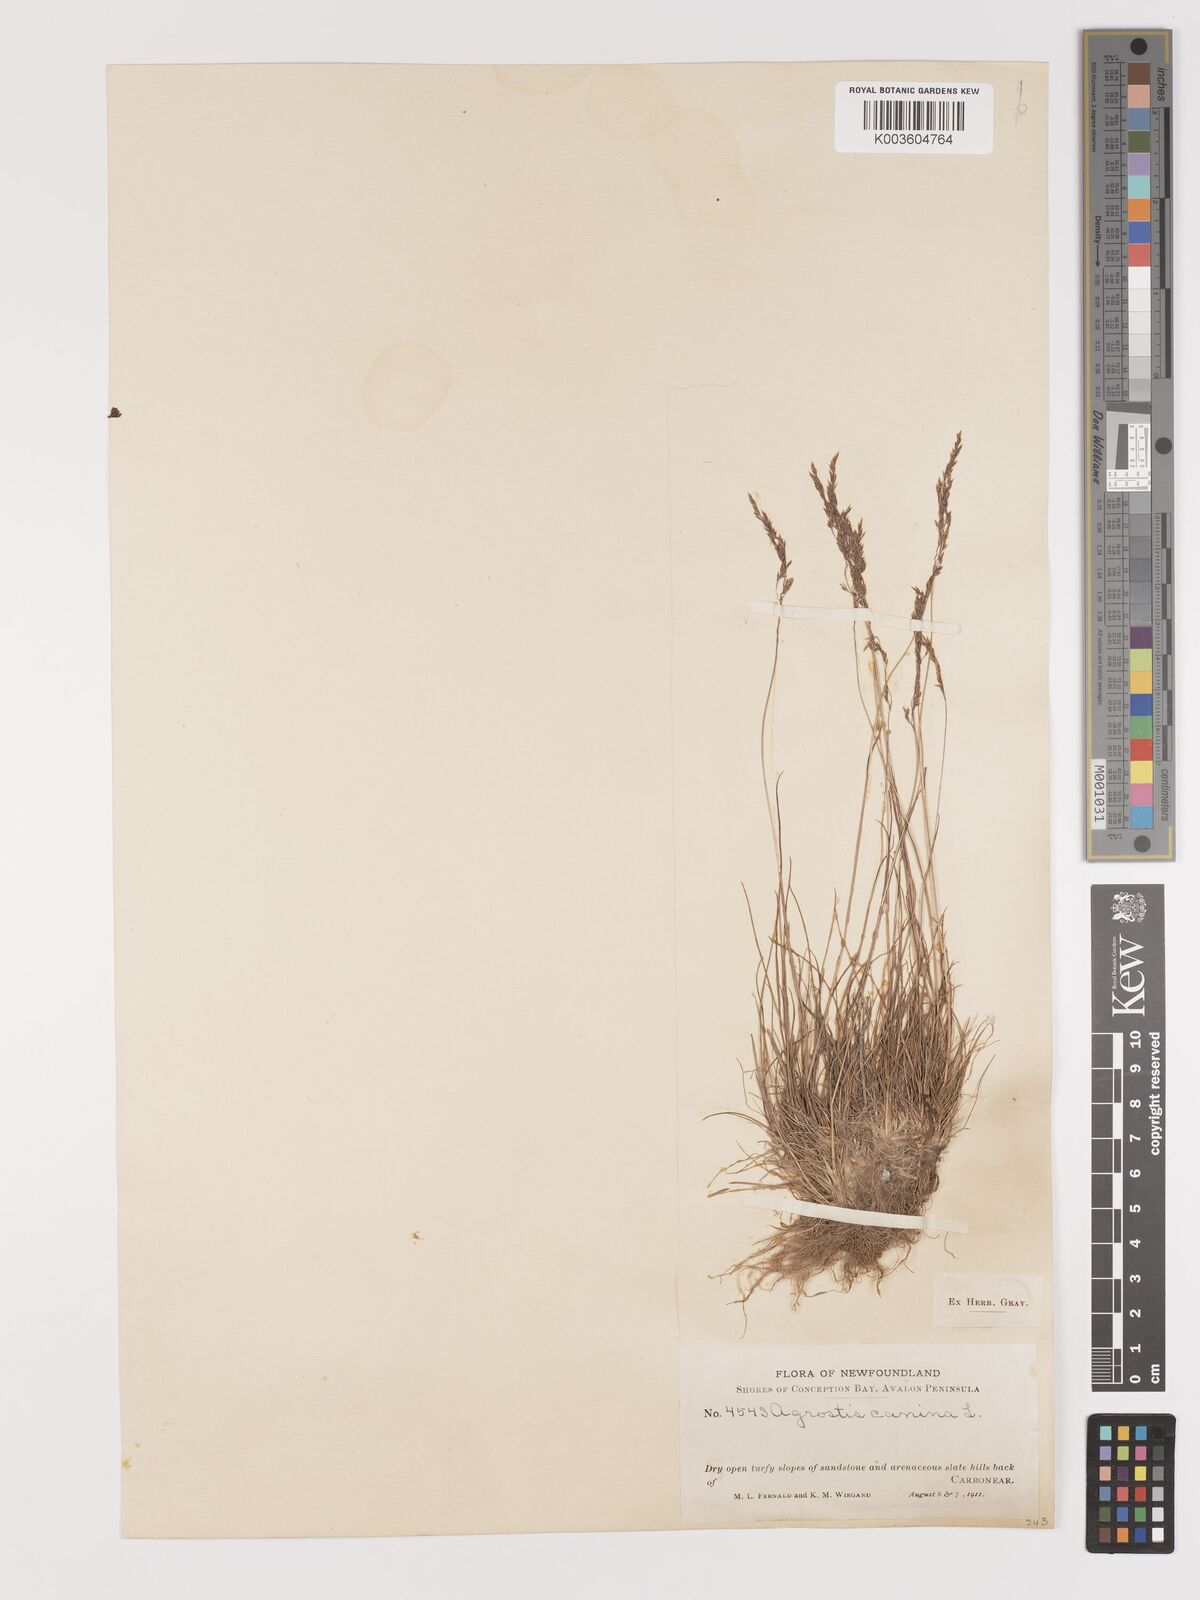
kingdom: Plantae
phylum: Tracheophyta
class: Liliopsida
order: Poales
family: Poaceae
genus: Agrostis
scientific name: Agrostis canina
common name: Velvet bent
